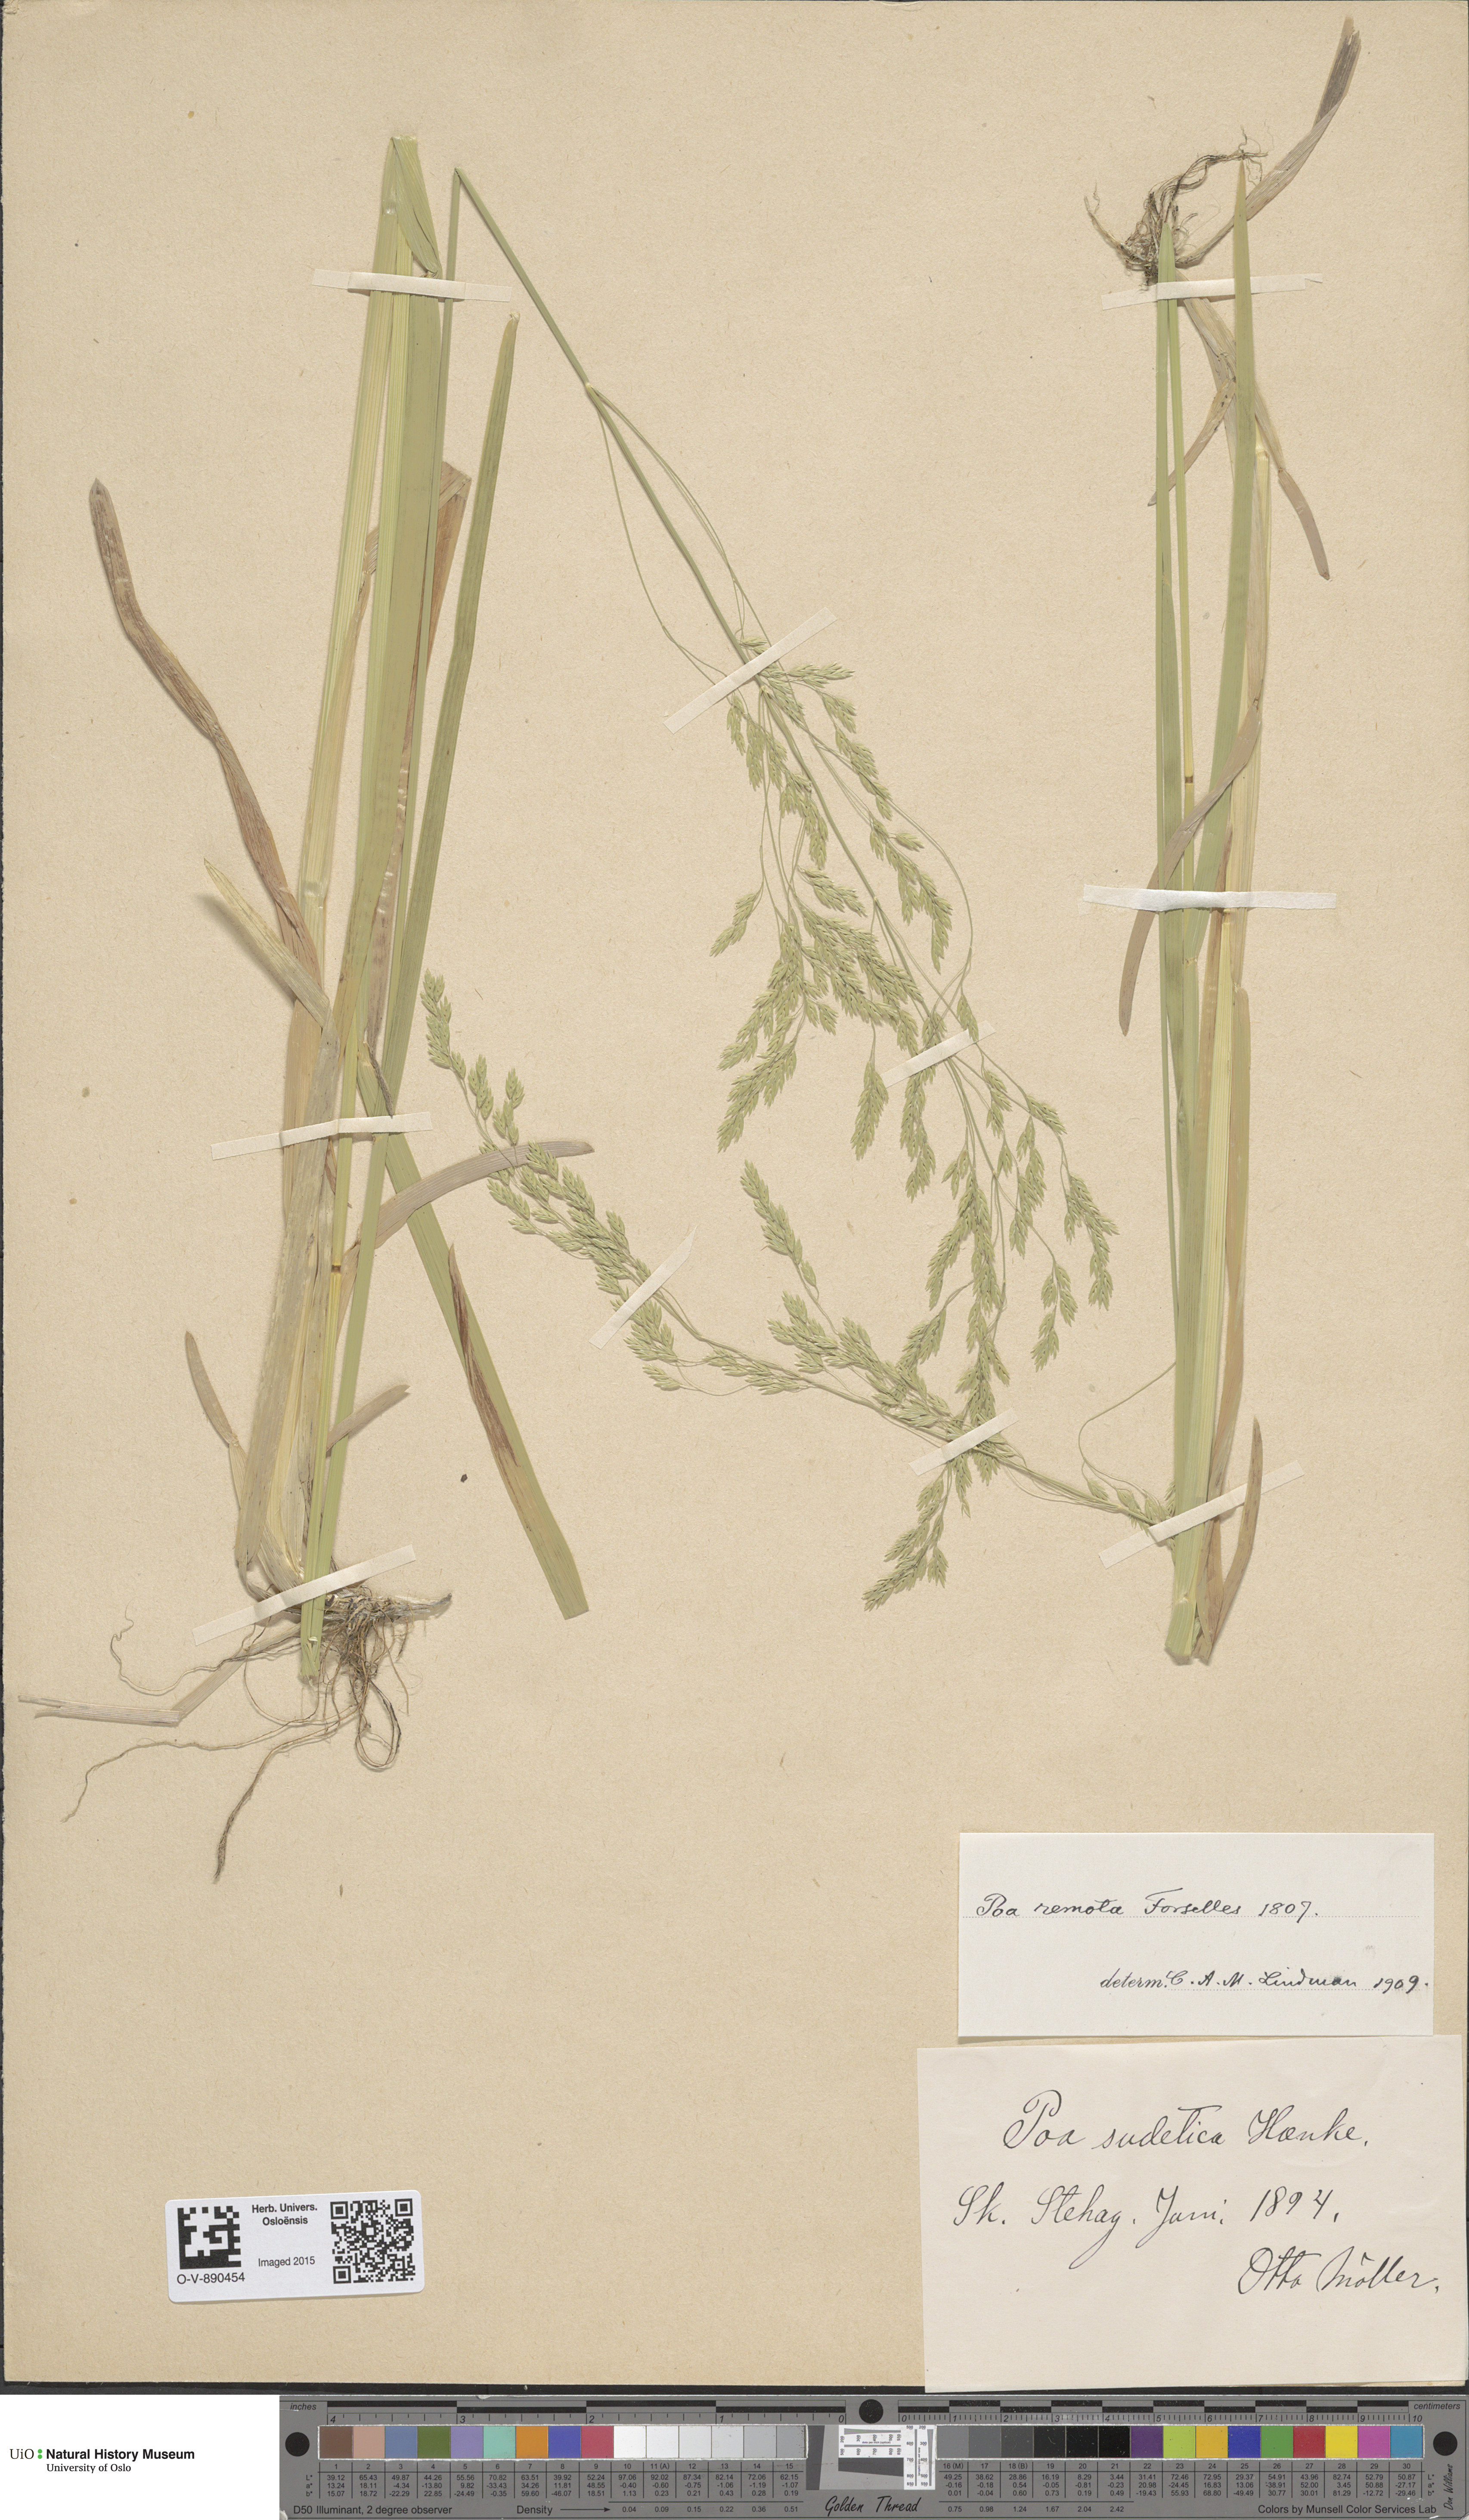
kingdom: Plantae
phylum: Tracheophyta
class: Liliopsida
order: Poales
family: Poaceae
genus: Poa
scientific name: Poa remota
